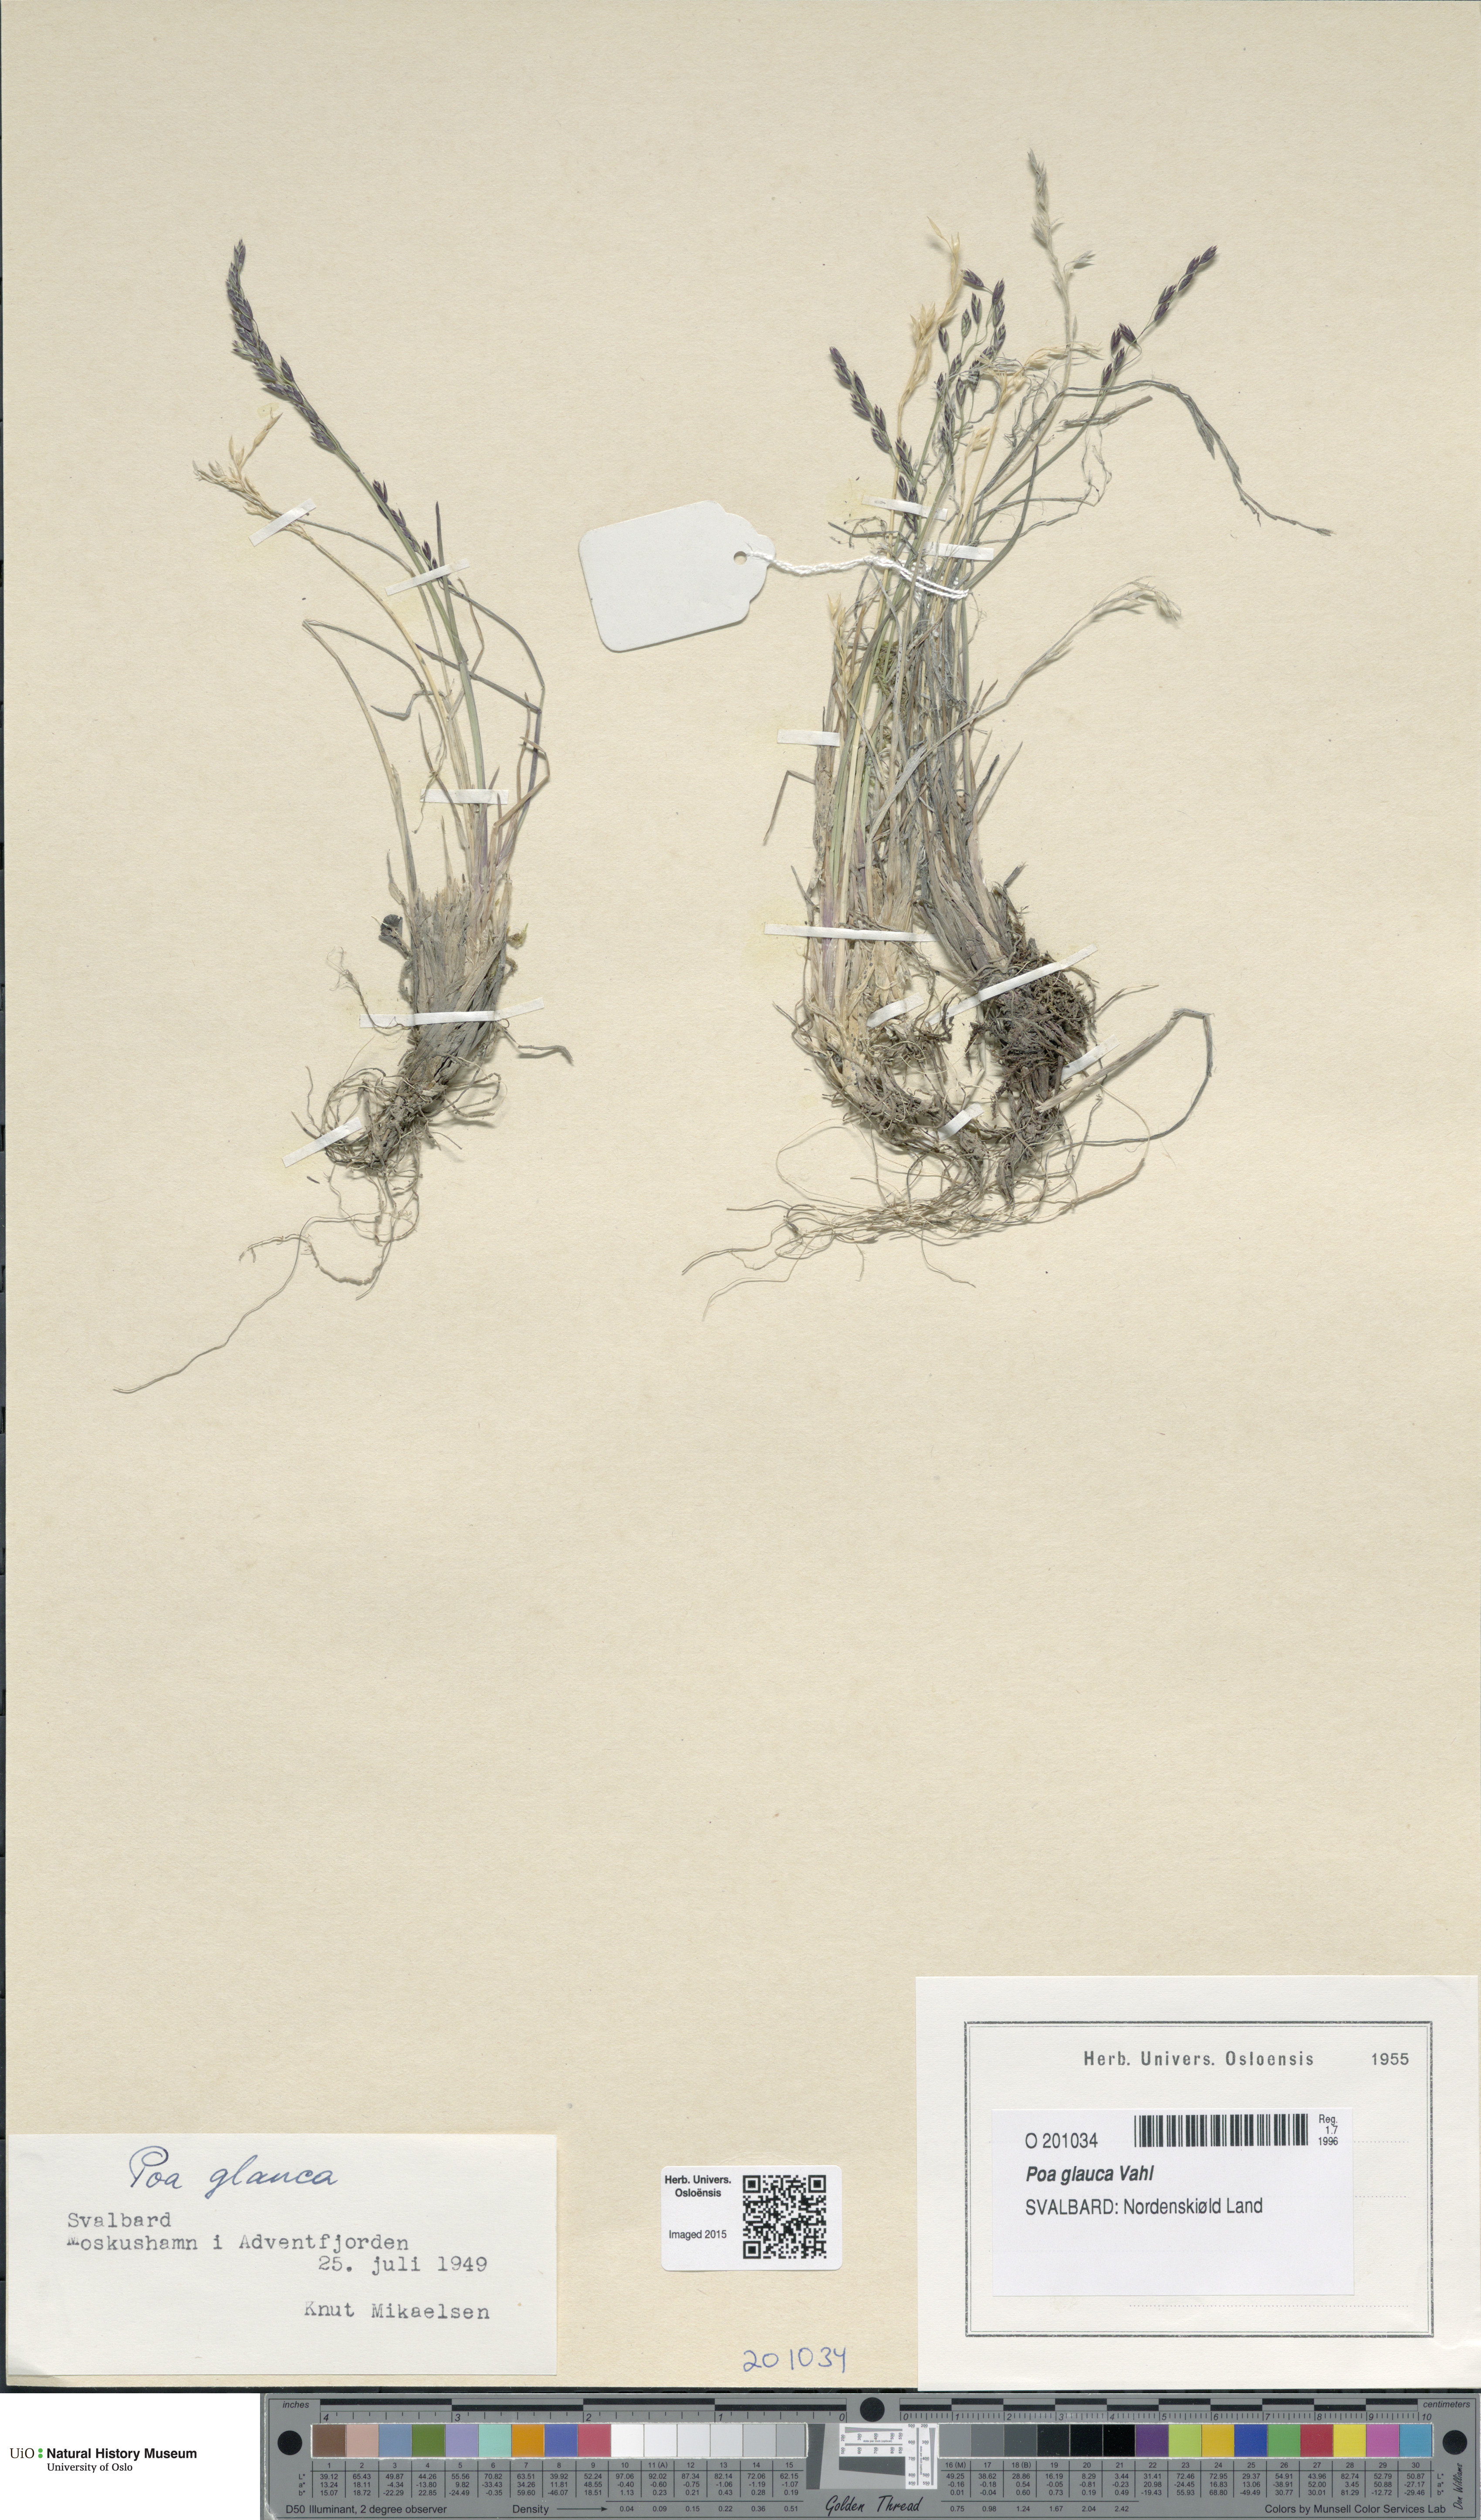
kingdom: Plantae
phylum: Tracheophyta
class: Liliopsida
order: Poales
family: Poaceae
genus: Poa
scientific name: Poa glauca
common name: Glaucous bluegrass
